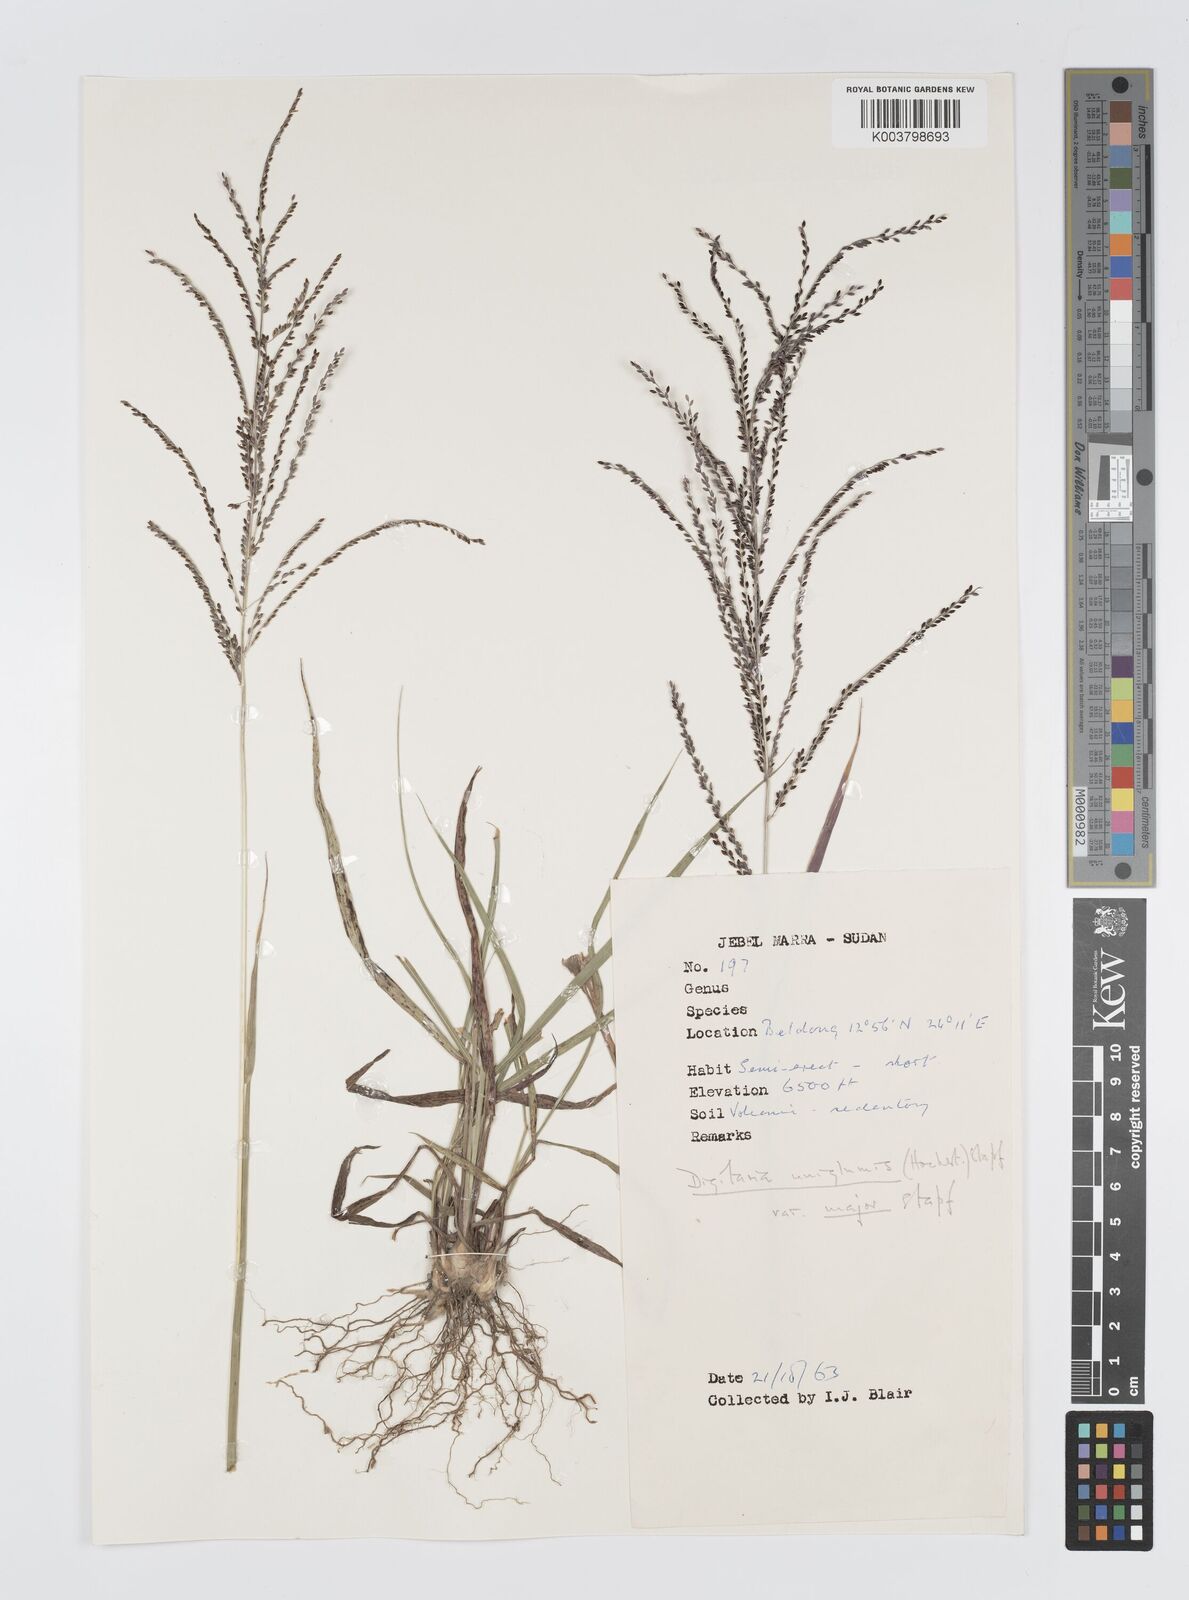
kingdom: Plantae
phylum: Tracheophyta
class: Liliopsida
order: Poales
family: Poaceae
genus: Digitaria
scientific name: Digitaria diagonalis
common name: Brown-seed finger grass
